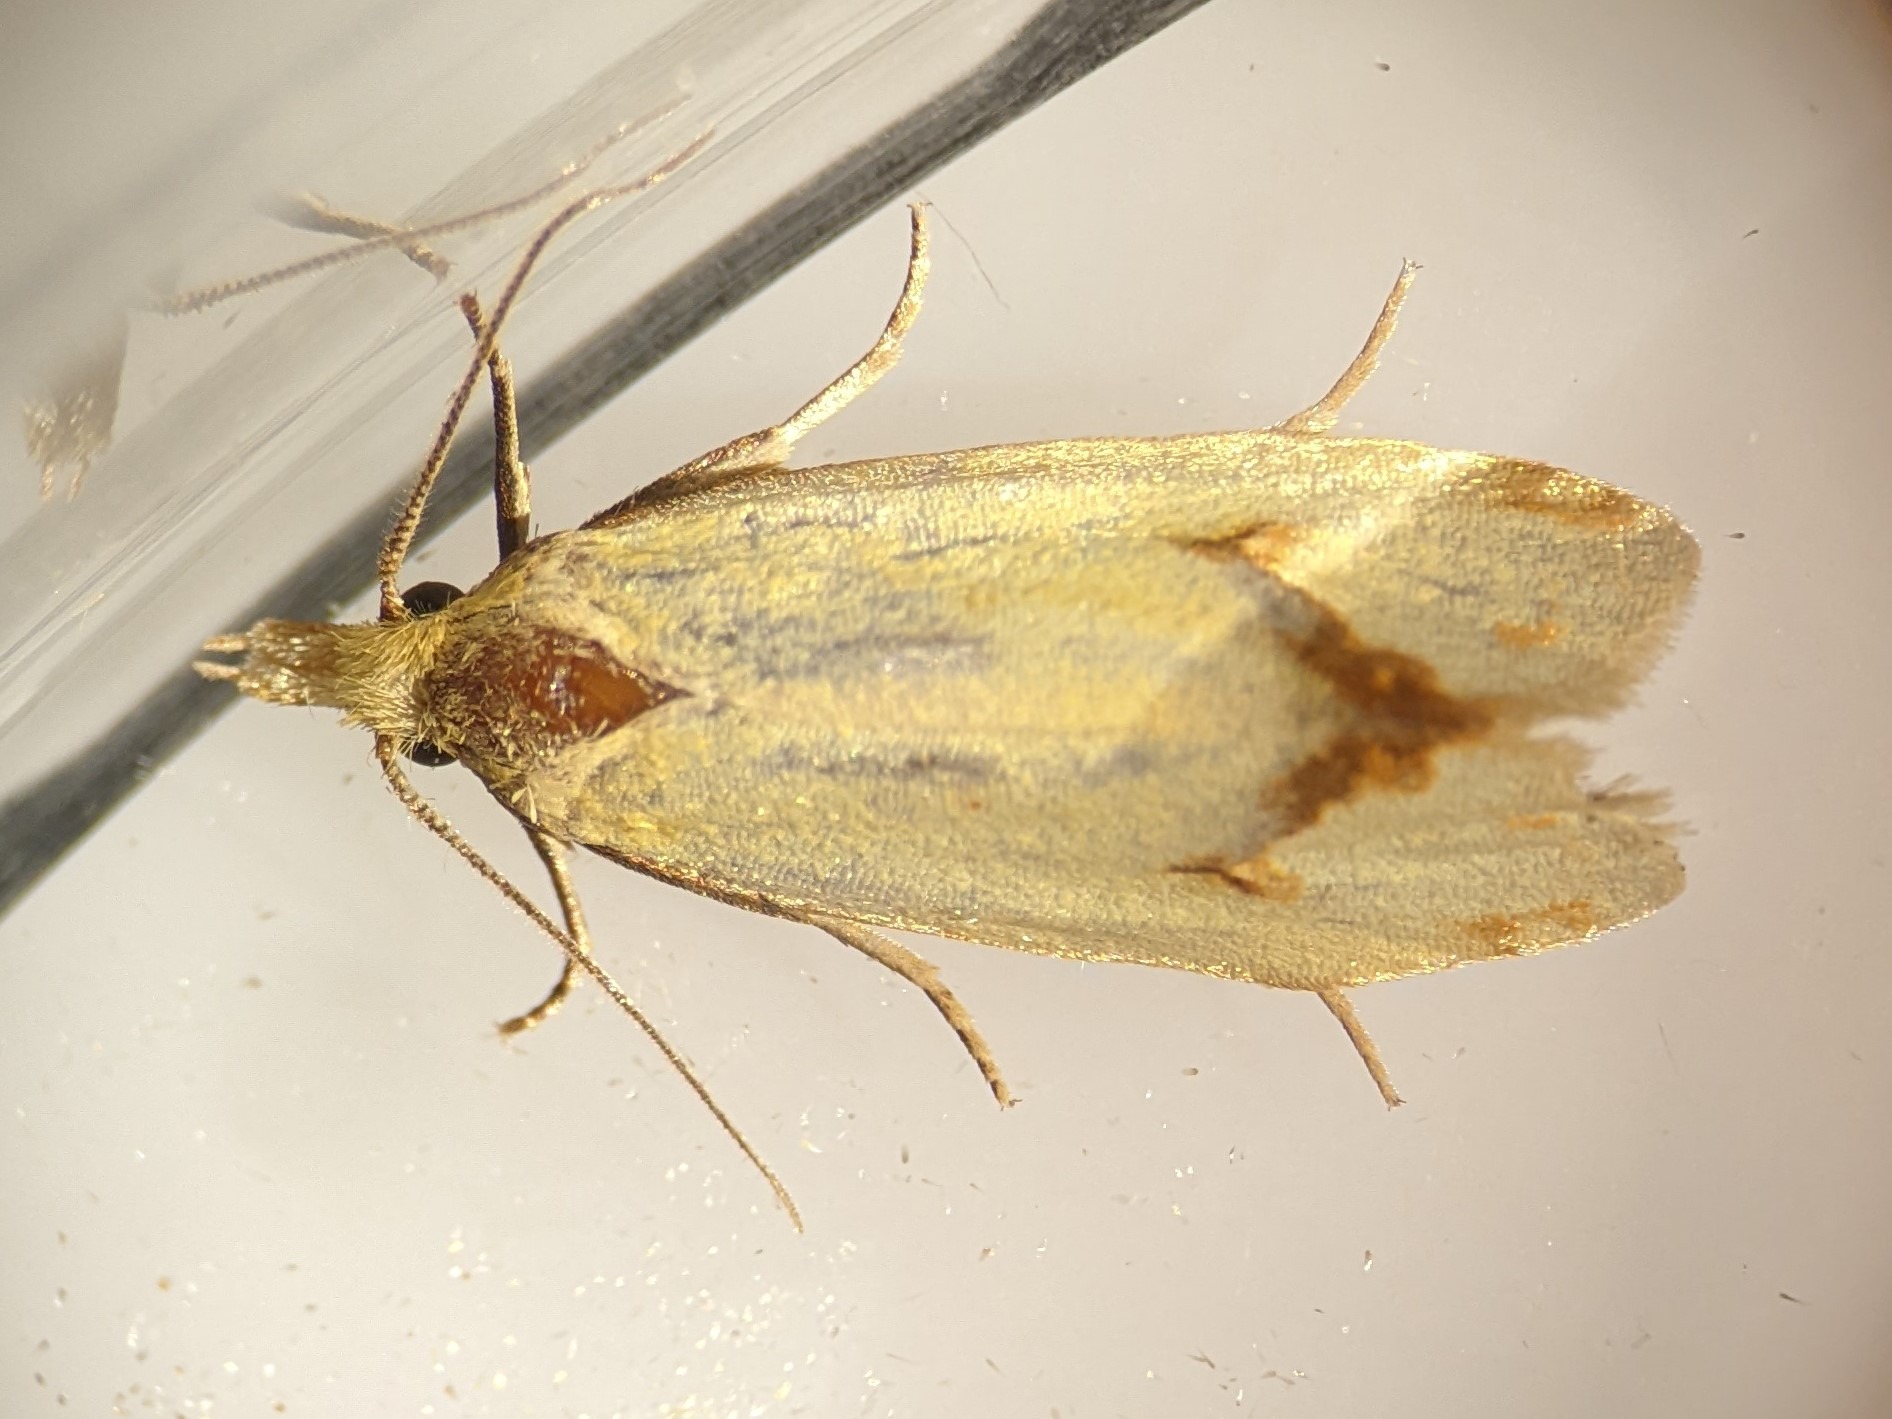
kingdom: Animalia
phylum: Arthropoda
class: Insecta
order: Lepidoptera
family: Tortricidae
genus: Agapeta
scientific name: Agapeta hamana
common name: Tidselgulvikler
